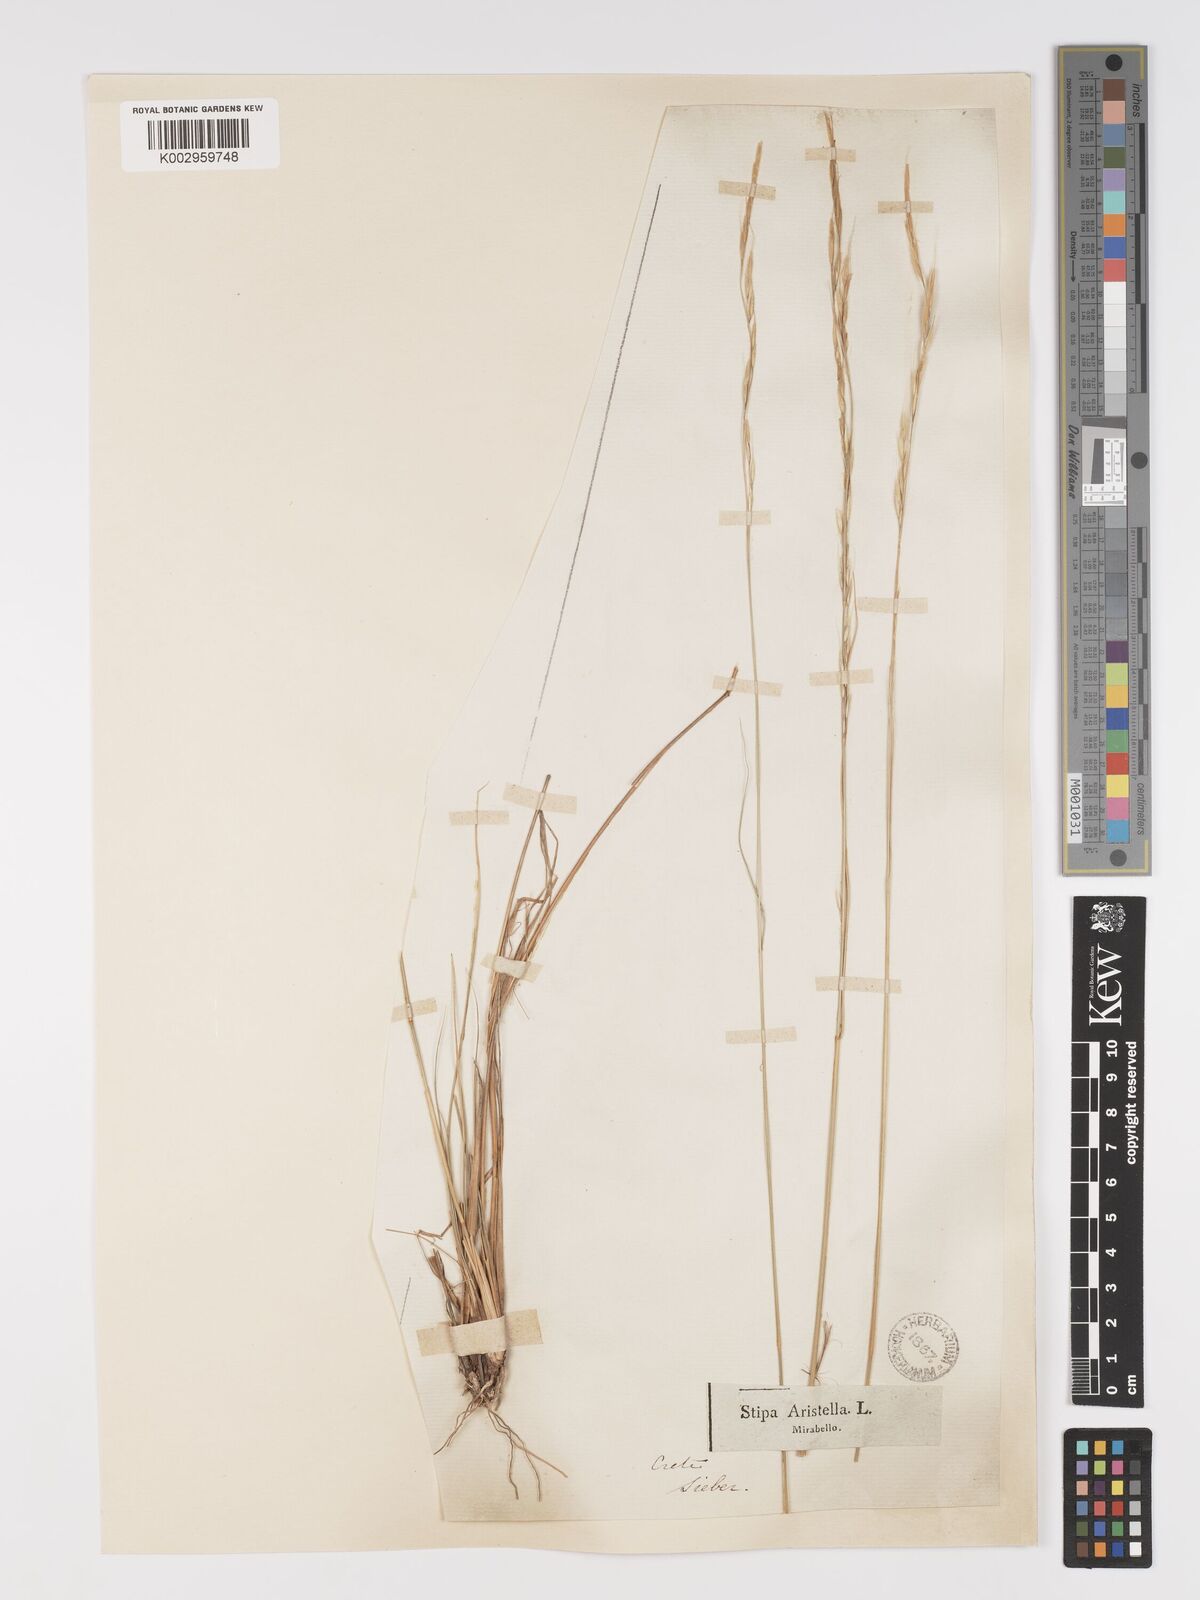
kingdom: Plantae
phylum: Tracheophyta
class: Liliopsida
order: Poales
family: Poaceae
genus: Achnatherum
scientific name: Achnatherum bromoides
